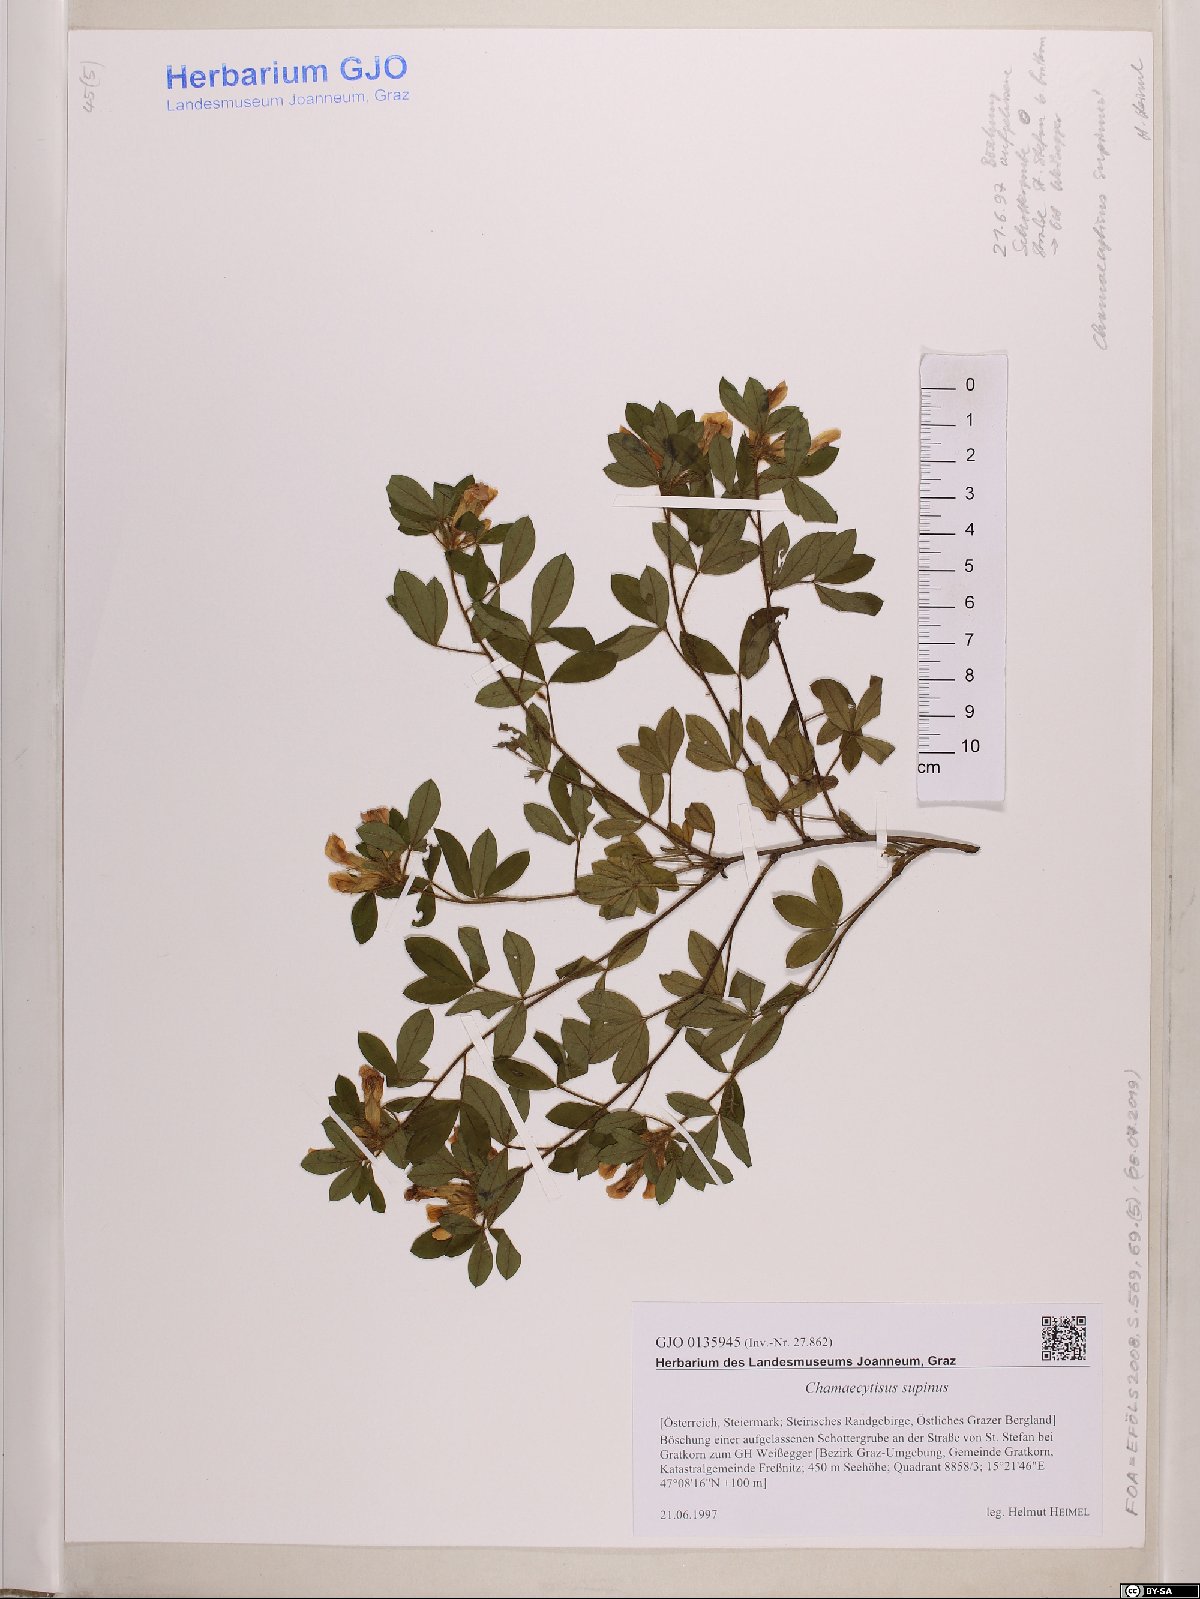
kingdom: Plantae
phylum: Tracheophyta
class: Magnoliopsida
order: Fabales
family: Fabaceae
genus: Chamaecytisus
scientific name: Chamaecytisus supinus
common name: Clustered broom
